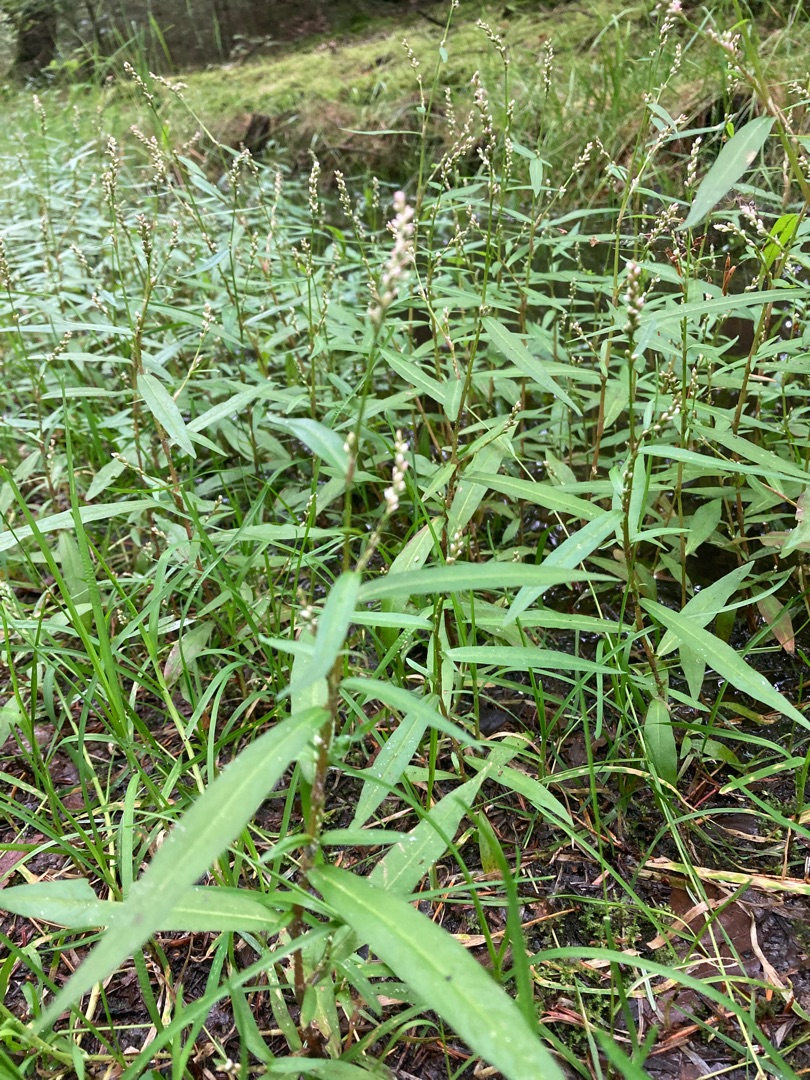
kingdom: Plantae
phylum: Tracheophyta
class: Magnoliopsida
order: Caryophyllales
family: Polygonaceae
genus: Persicaria
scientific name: Persicaria minor
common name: Liden pileurt
